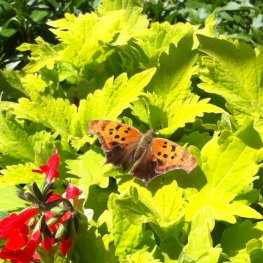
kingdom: Animalia
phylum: Arthropoda
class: Insecta
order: Lepidoptera
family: Nymphalidae
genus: Polygonia
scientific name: Polygonia interrogationis
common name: Question Mark
